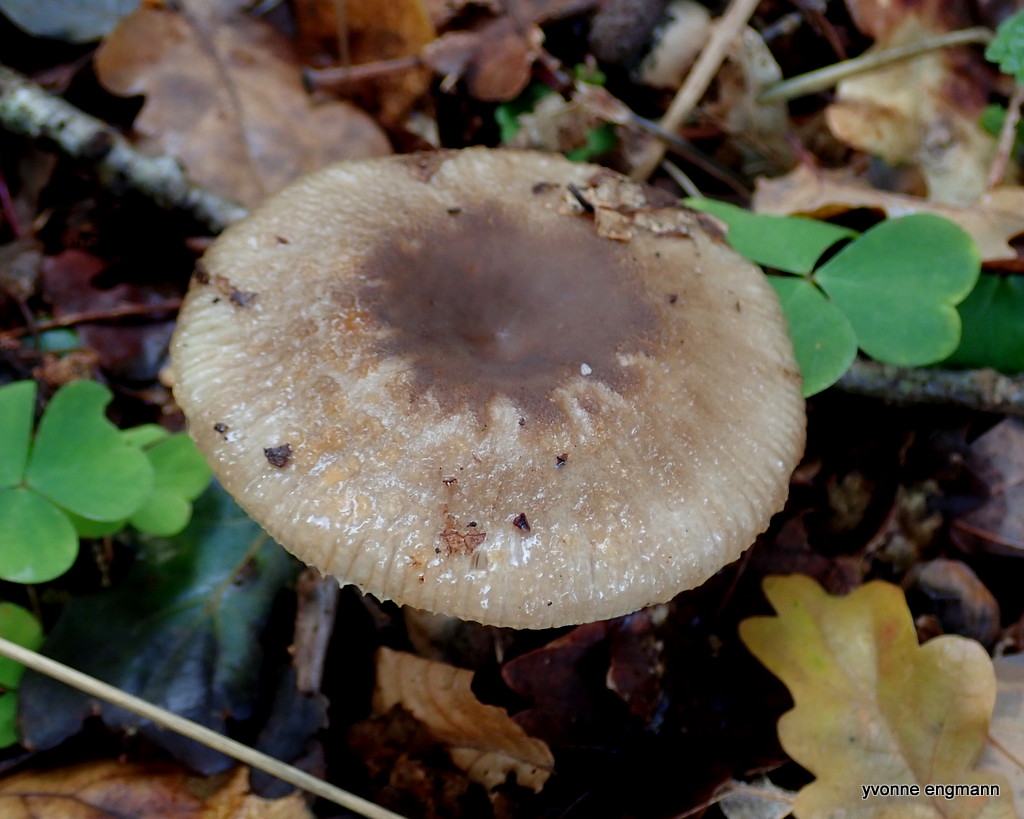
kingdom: Fungi
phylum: Basidiomycota
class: Agaricomycetes
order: Russulales
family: Russulaceae
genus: Russula
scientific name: Russula grata
